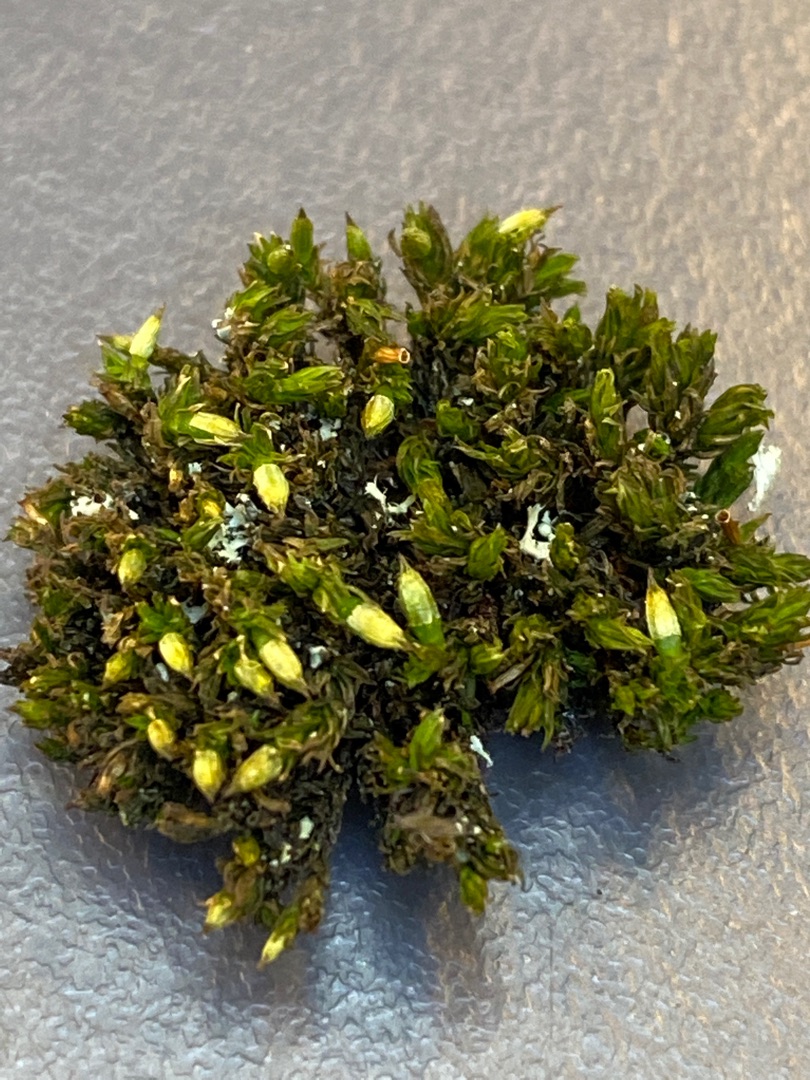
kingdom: Plantae
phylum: Bryophyta
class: Bryopsida
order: Orthotrichales
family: Orthotrichaceae
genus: Lewinskya
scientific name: Lewinskya affinis
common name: Almindelig furehætte
